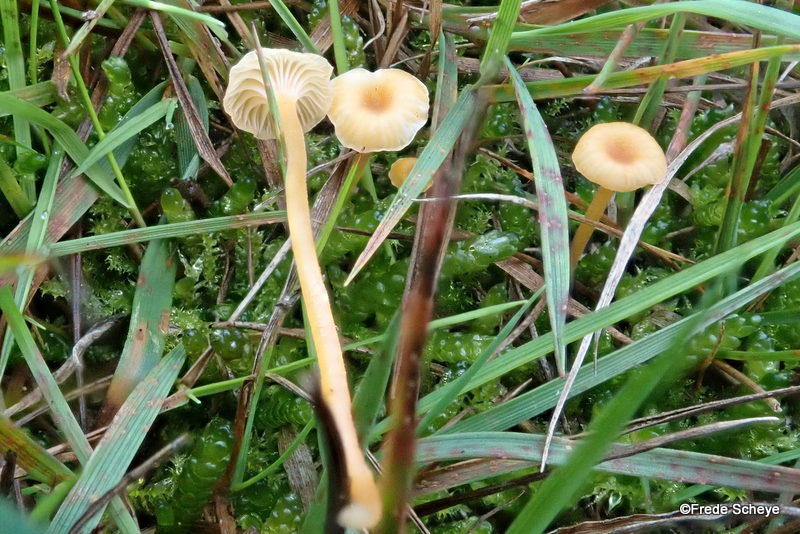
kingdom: Fungi
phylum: Basidiomycota
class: Agaricomycetes
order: Hymenochaetales
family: Rickenellaceae
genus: Rickenella
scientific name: Rickenella fibula
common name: orange mosnavlehat
